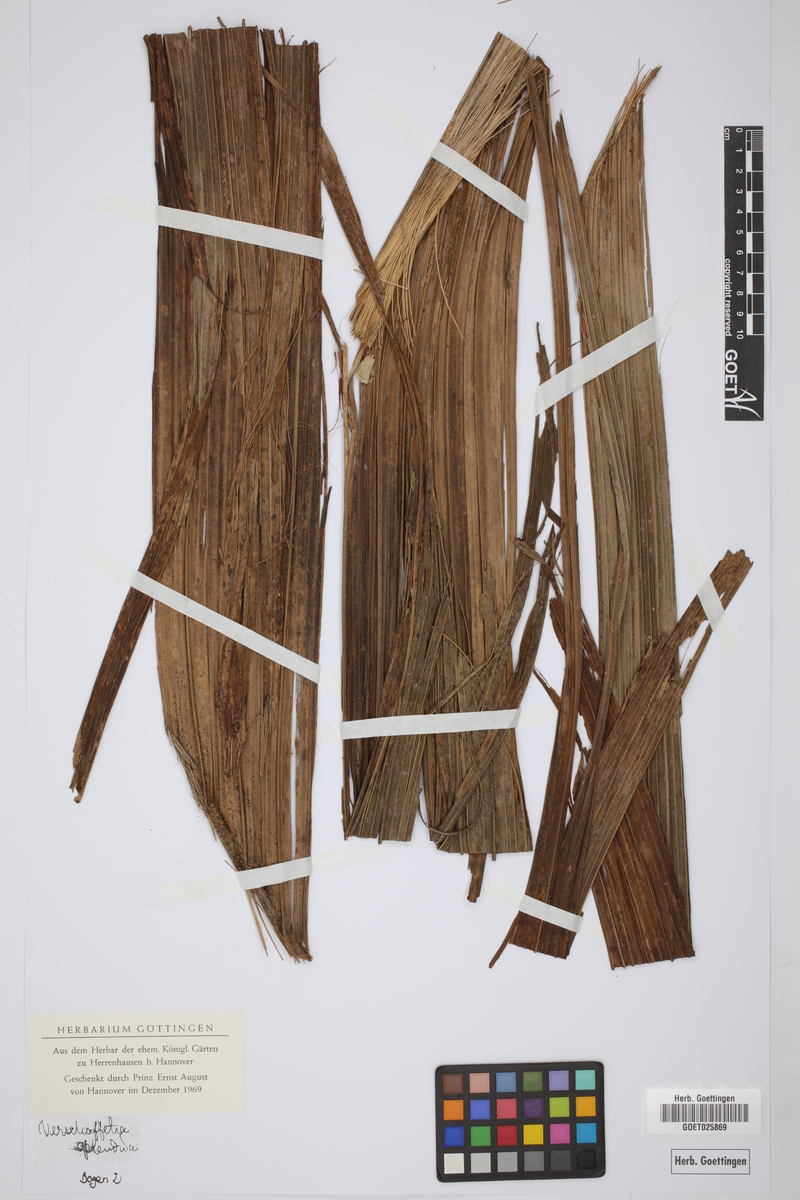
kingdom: Plantae
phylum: Tracheophyta
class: Liliopsida
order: Arecales
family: Arecaceae
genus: Verschaffeltia
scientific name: Verschaffeltia splendida
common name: Seychelles stilt palm
